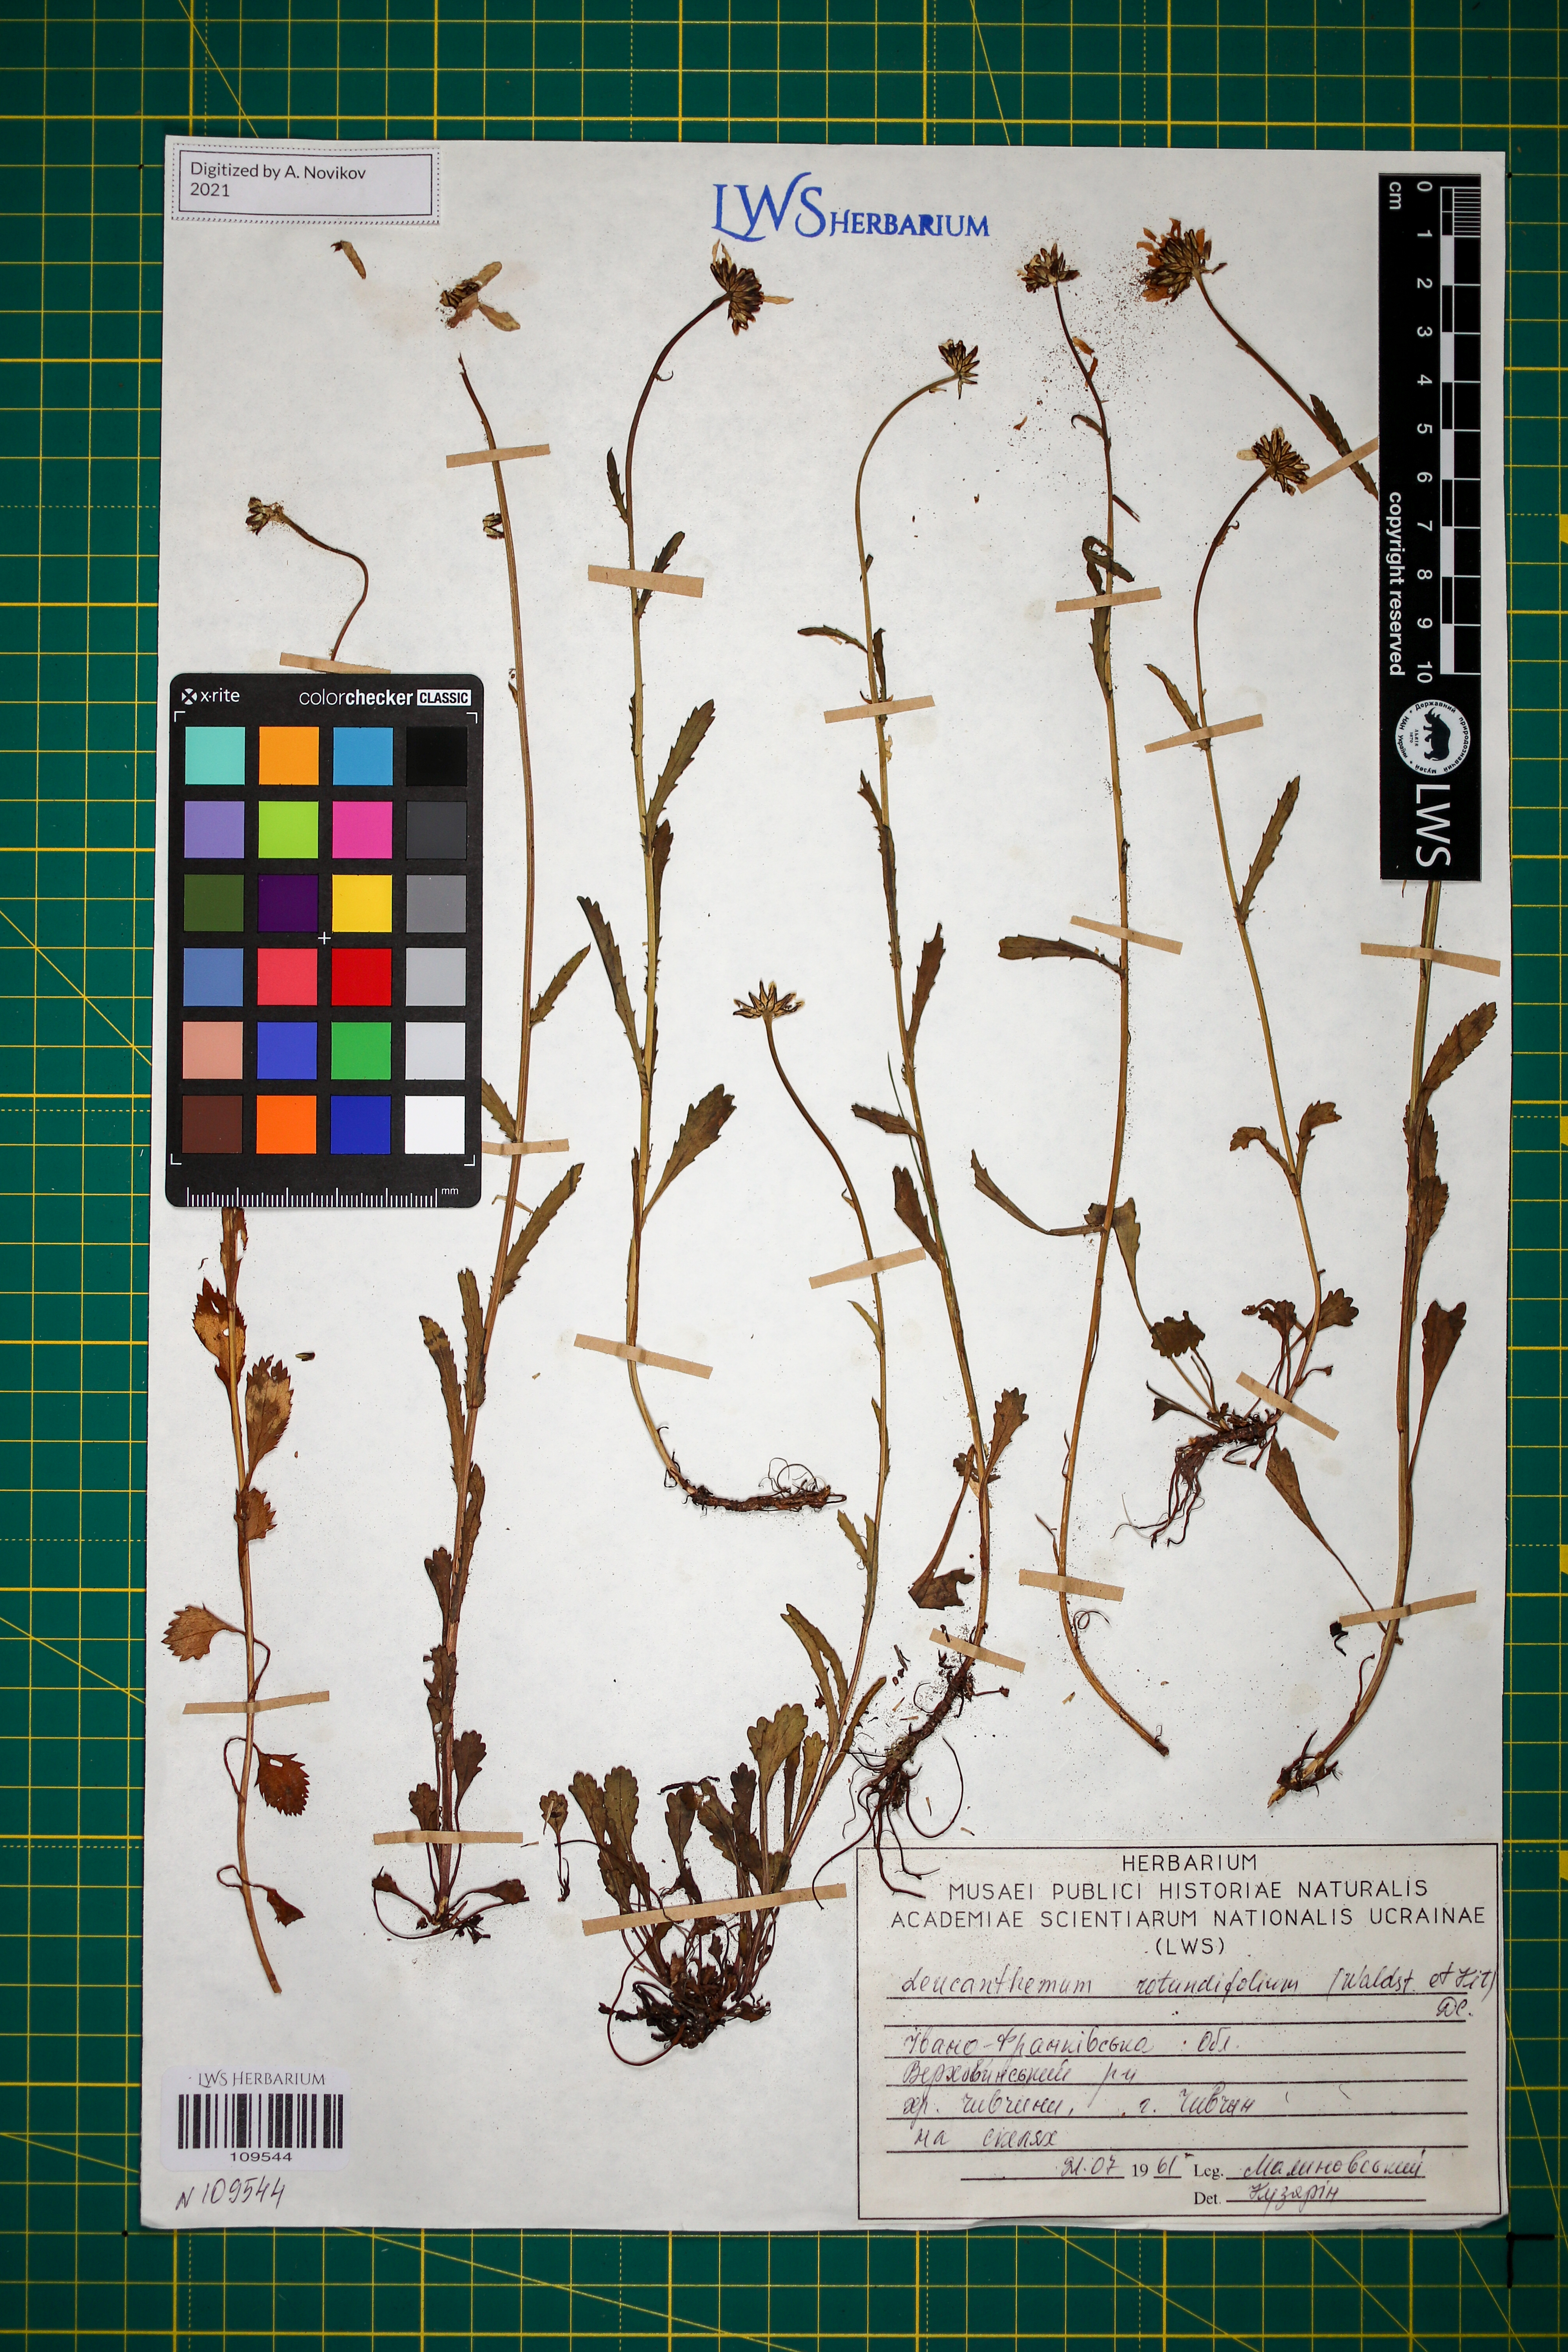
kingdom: Plantae
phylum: Tracheophyta
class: Magnoliopsida
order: Asterales
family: Asteraceae
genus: Leucanthemum
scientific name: Leucanthemum rotundifolium
